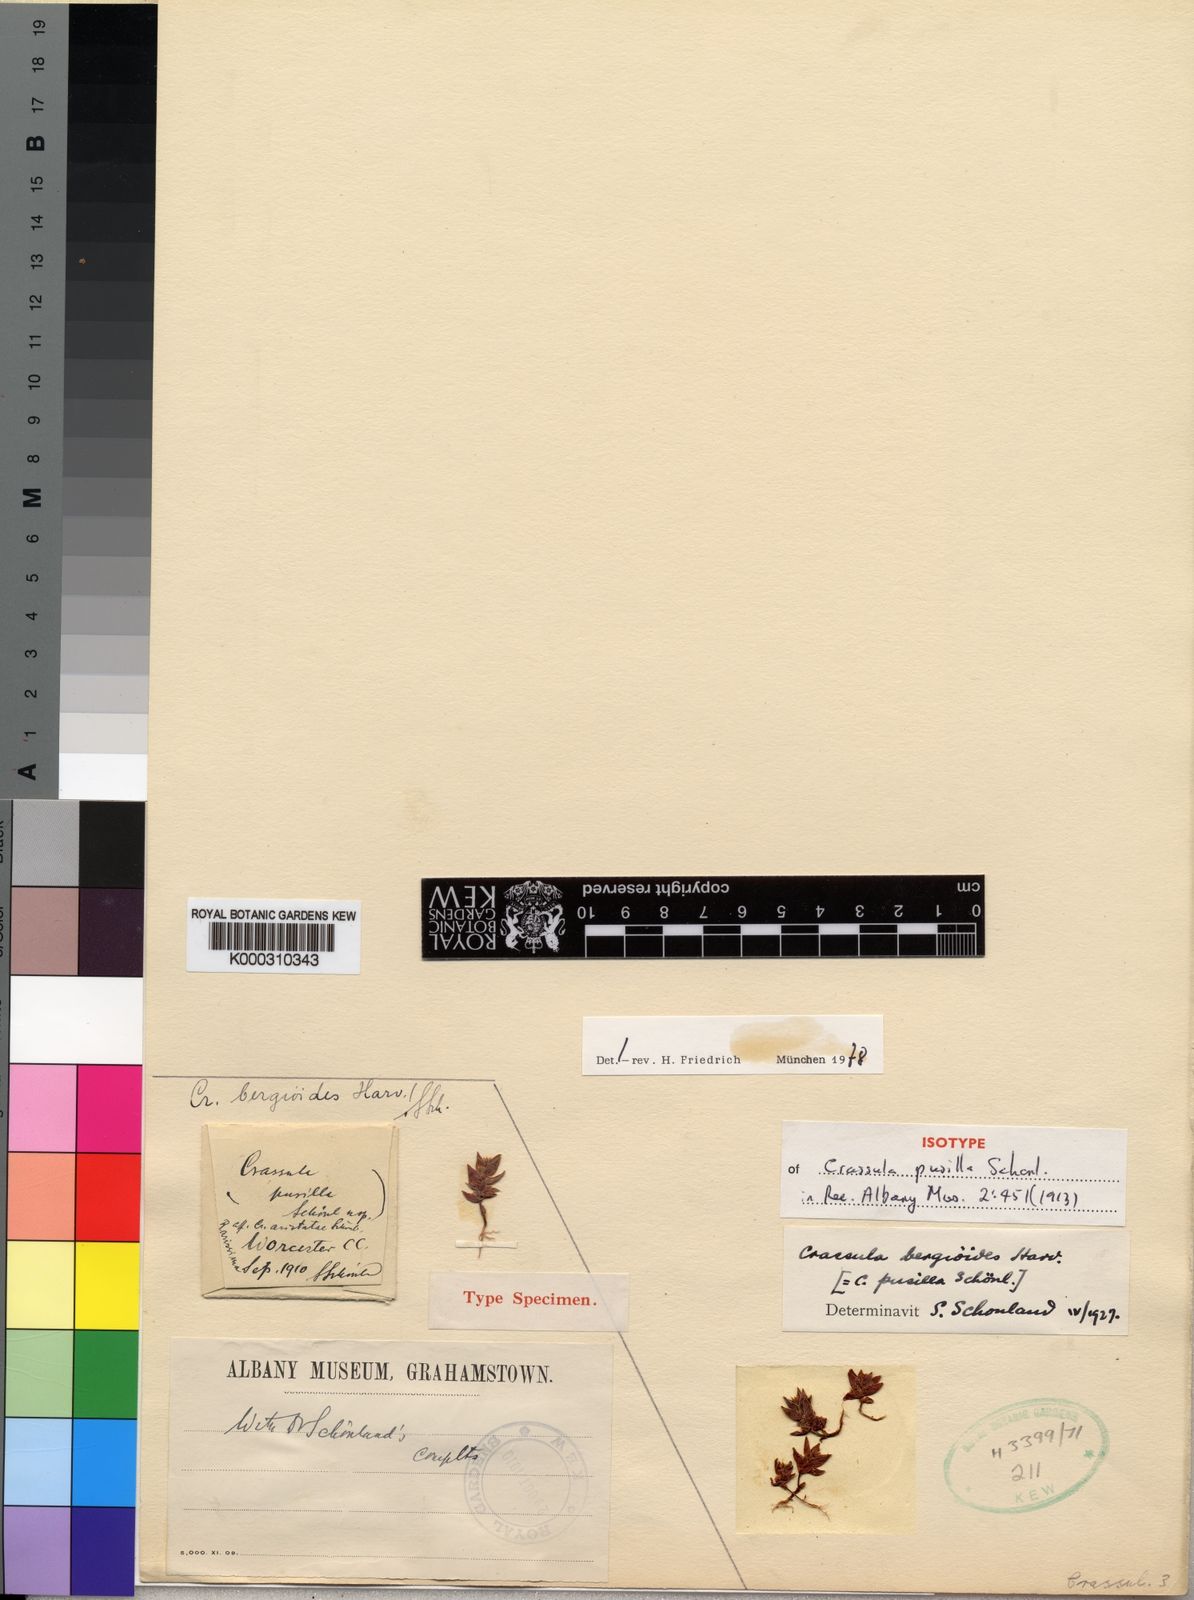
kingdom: Plantae
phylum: Tracheophyta
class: Magnoliopsida
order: Saxifragales
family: Crassulaceae
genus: Crassula
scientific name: Crassula bergioides
